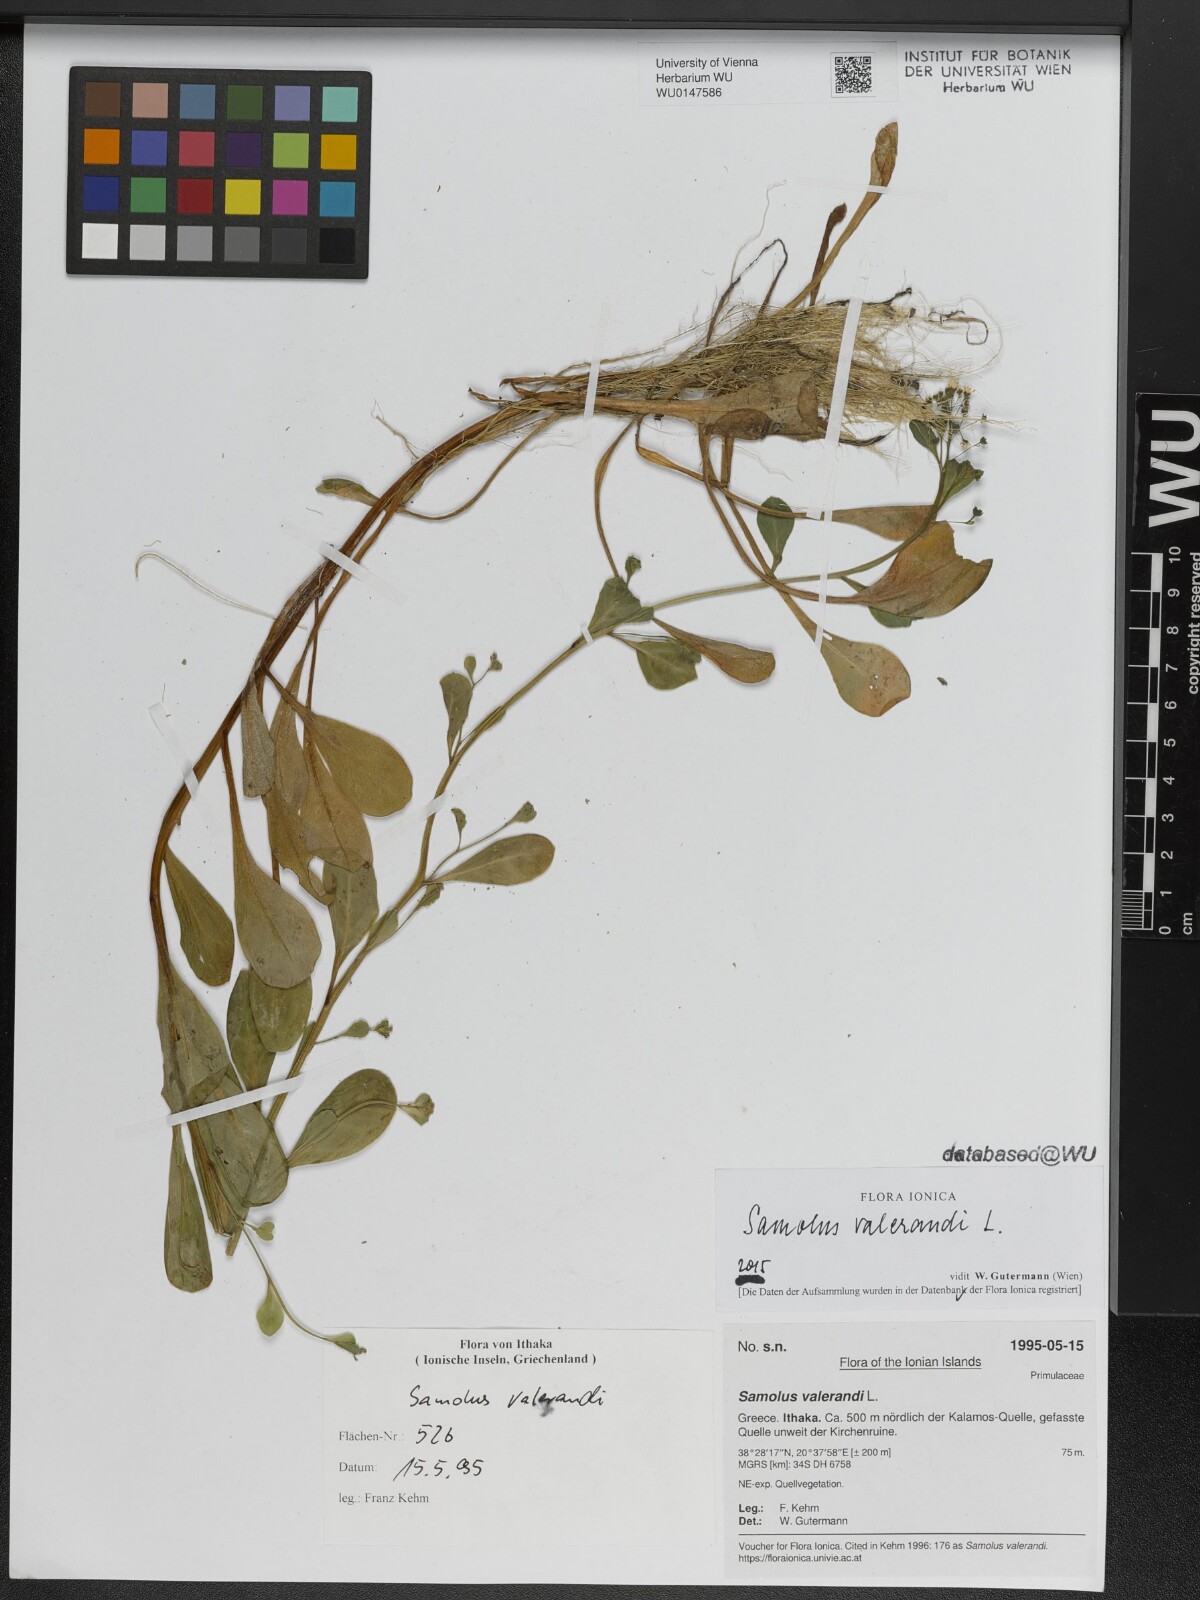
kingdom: Plantae
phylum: Tracheophyta
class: Magnoliopsida
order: Ericales
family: Primulaceae
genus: Samolus
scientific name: Samolus valerandi
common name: Brookweed
